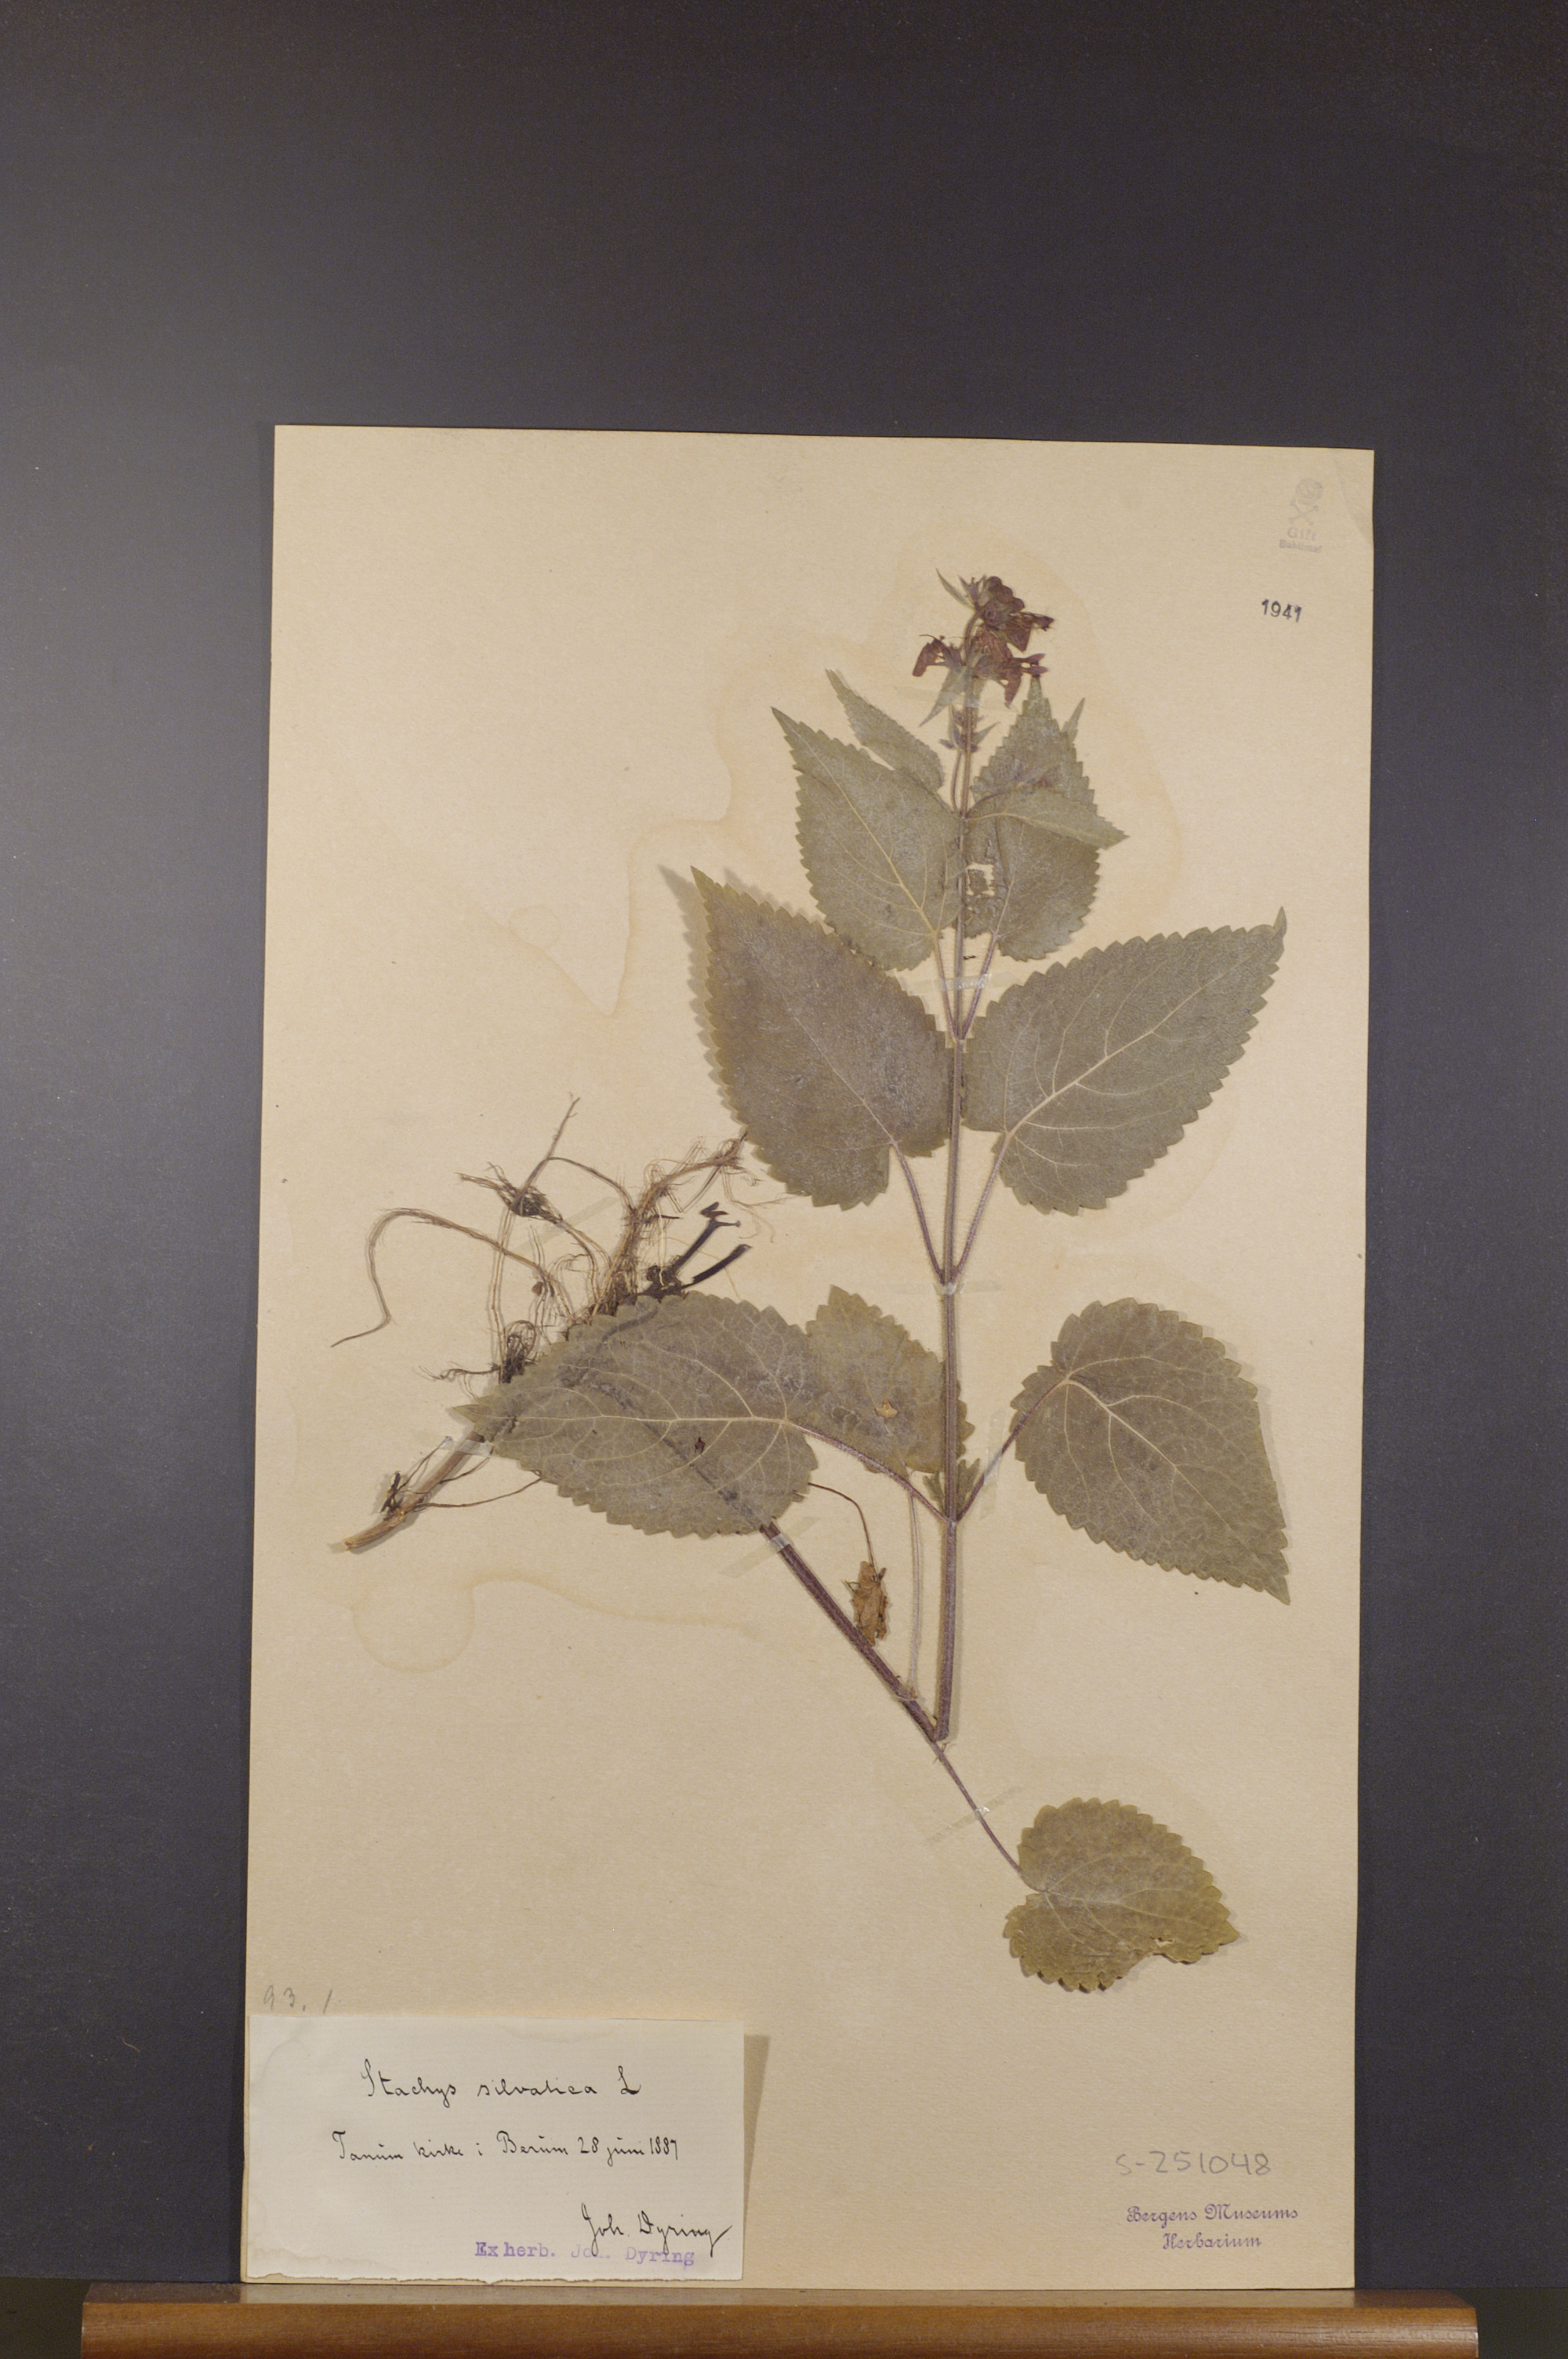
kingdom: Plantae
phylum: Tracheophyta
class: Magnoliopsida
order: Lamiales
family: Lamiaceae
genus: Stachys
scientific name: Stachys sylvatica
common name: Hedge woundwort
